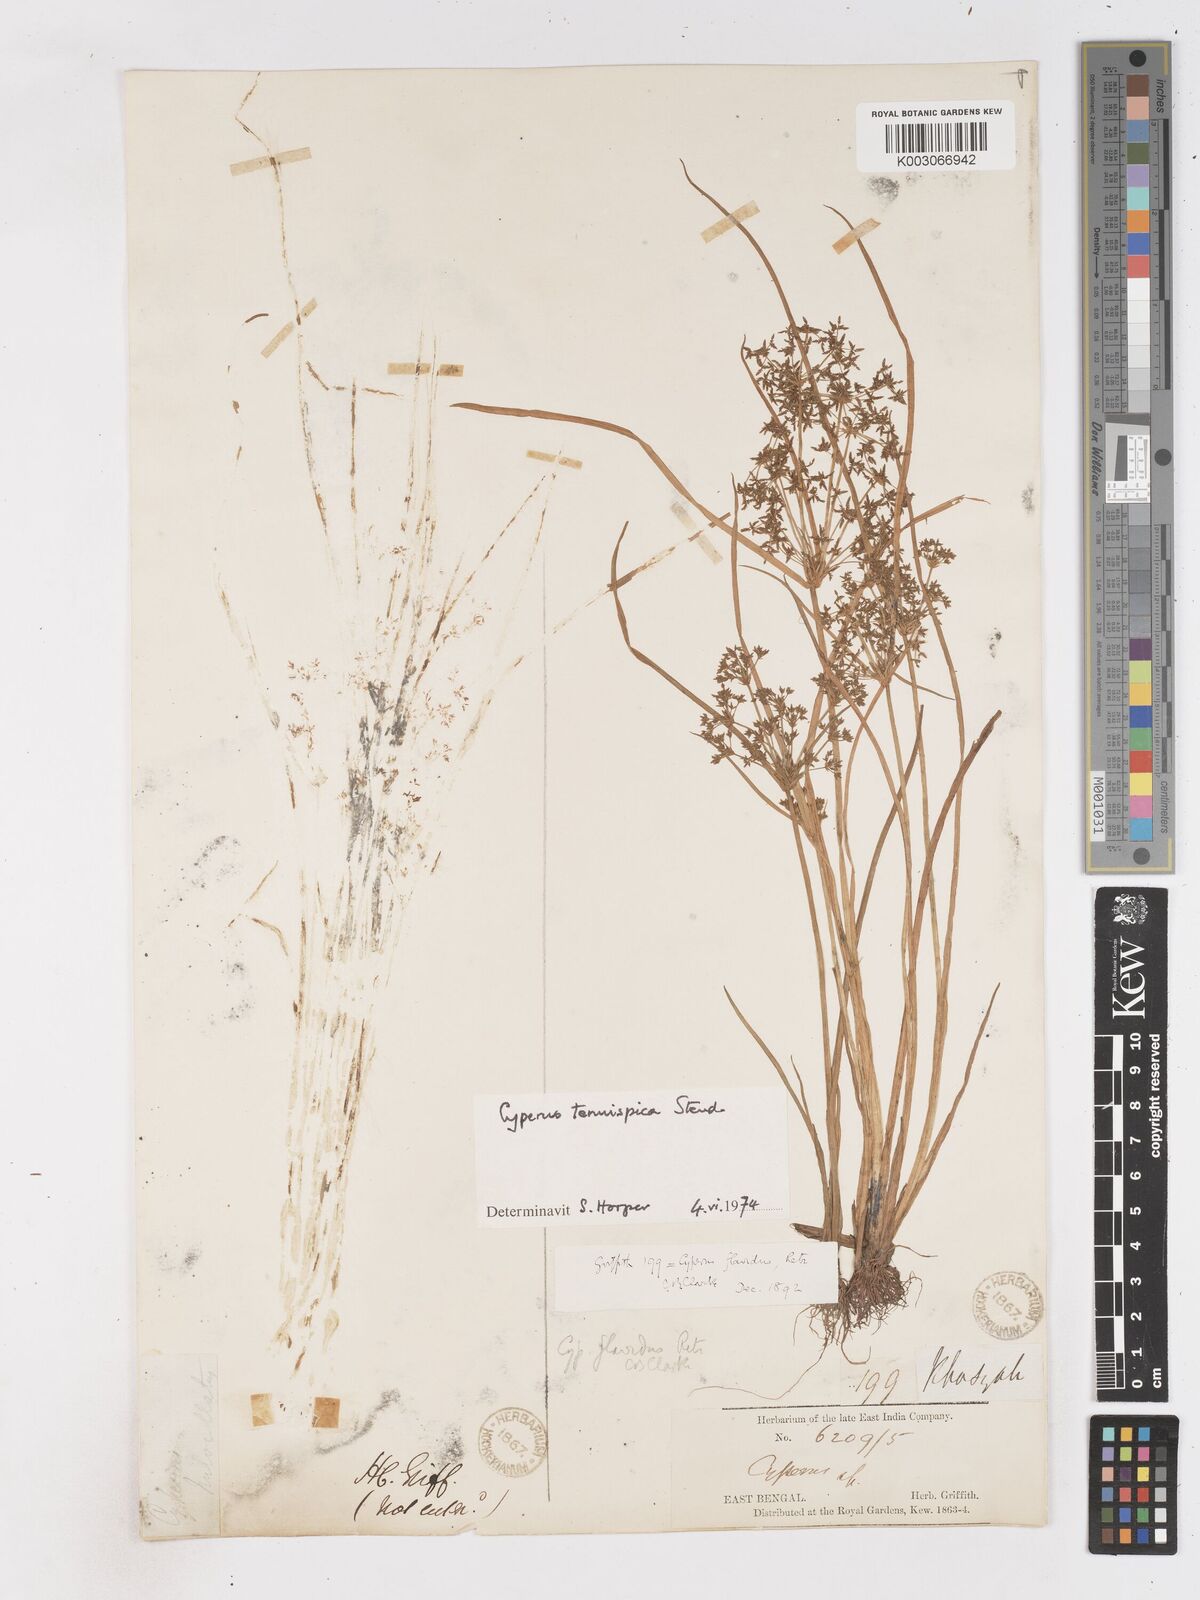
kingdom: Plantae
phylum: Tracheophyta
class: Liliopsida
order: Poales
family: Cyperaceae
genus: Cyperus
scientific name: Cyperus tenuispica
